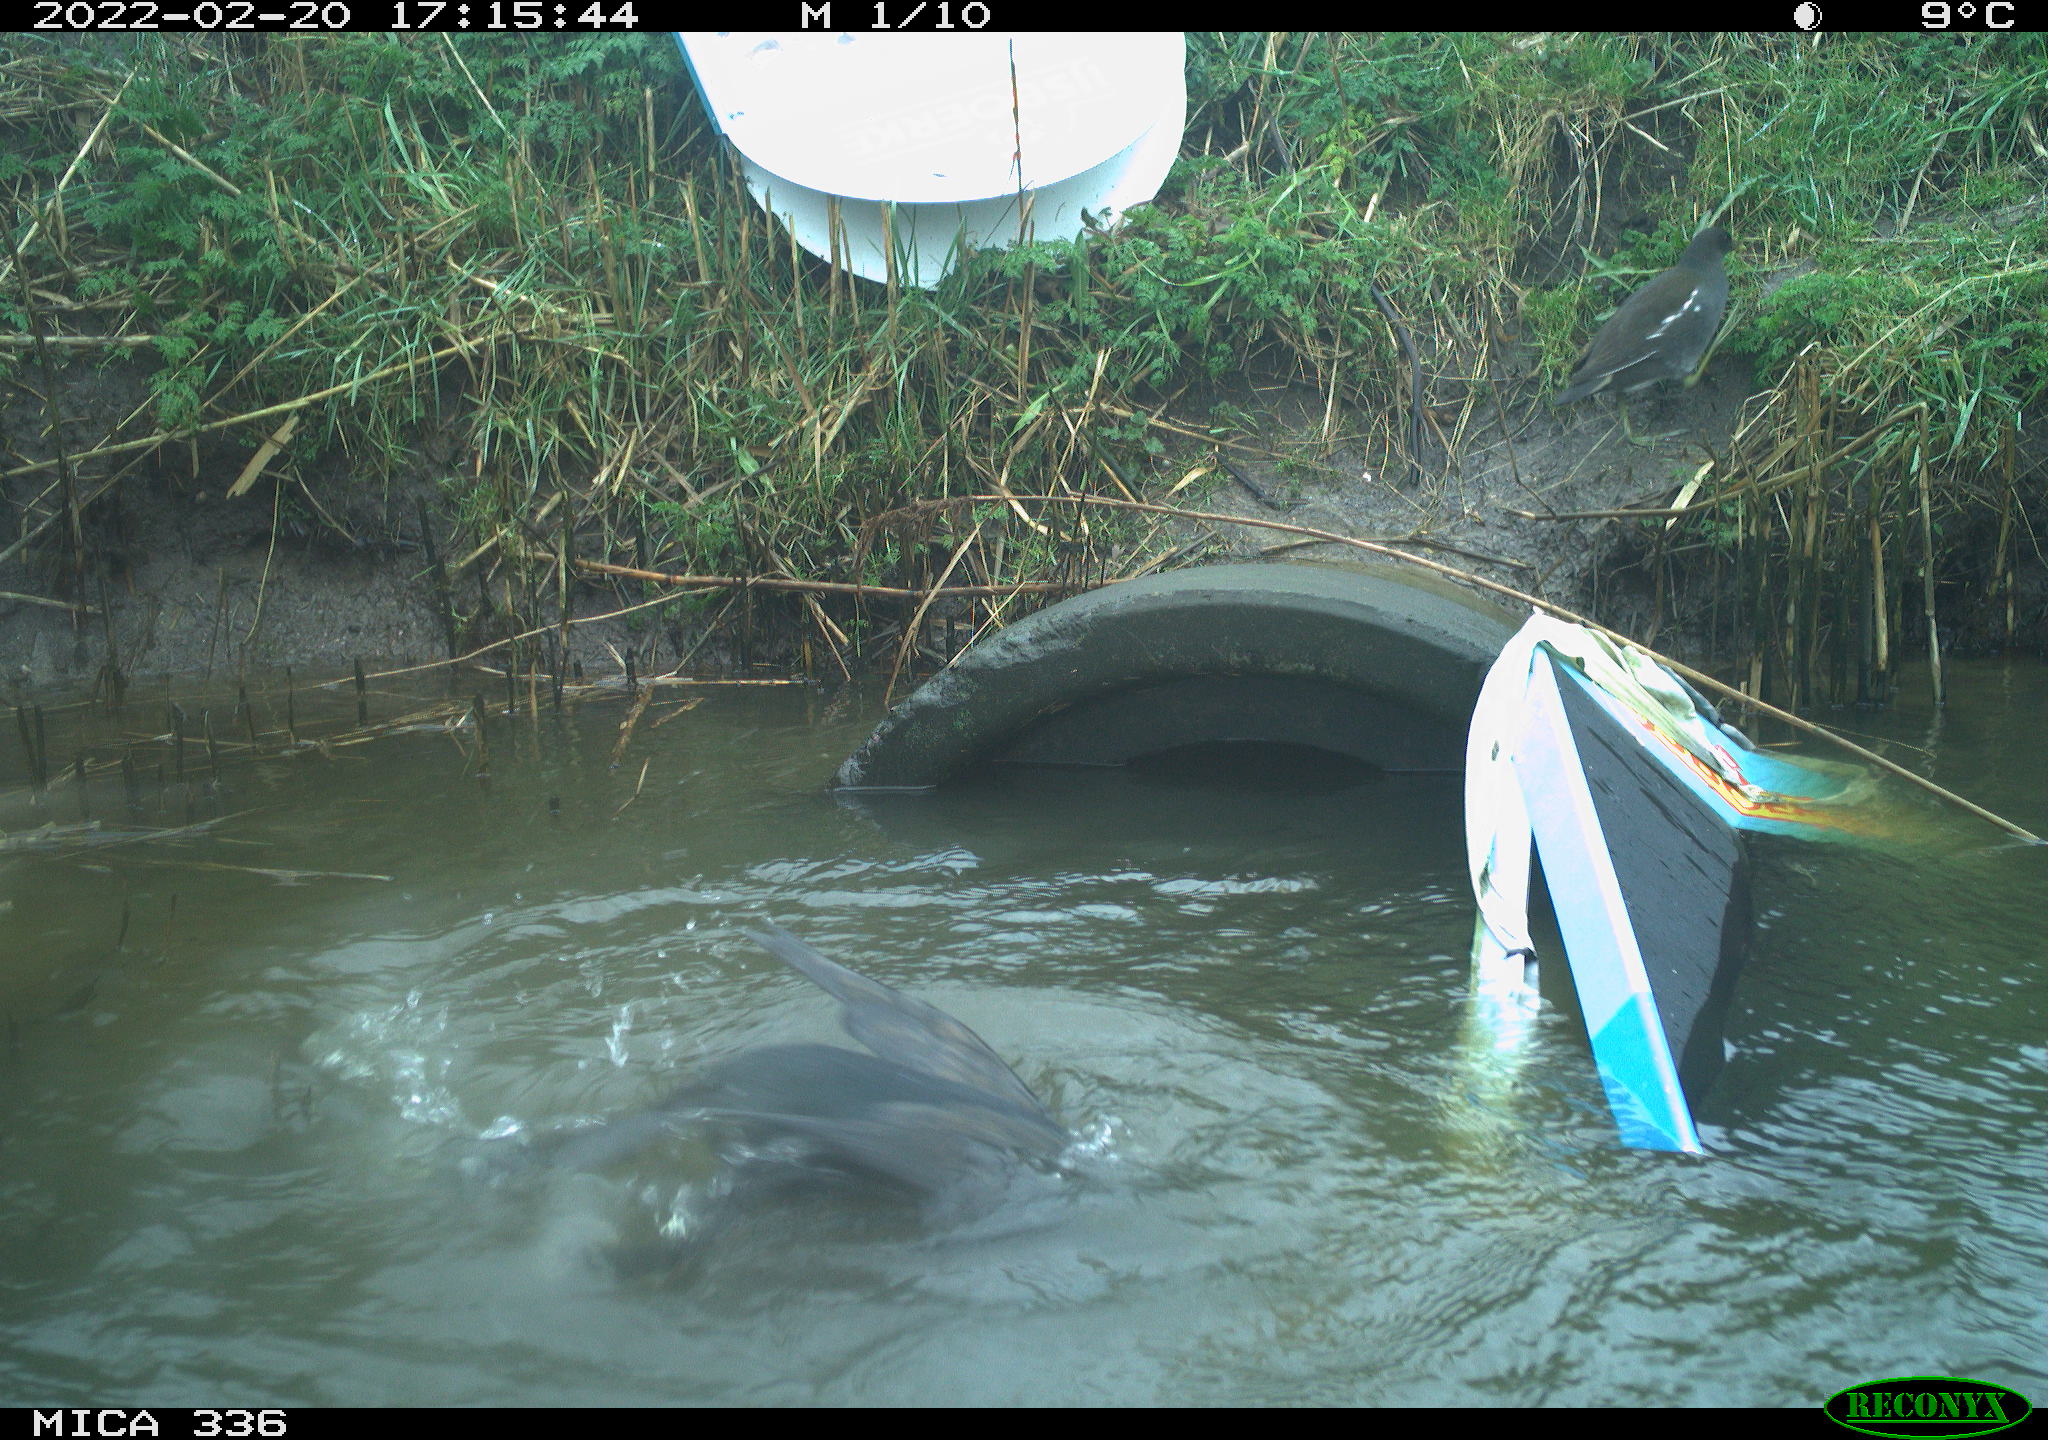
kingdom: Animalia
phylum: Chordata
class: Aves
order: Suliformes
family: Phalacrocoracidae
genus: Phalacrocorax
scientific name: Phalacrocorax carbo
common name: Great cormorant
